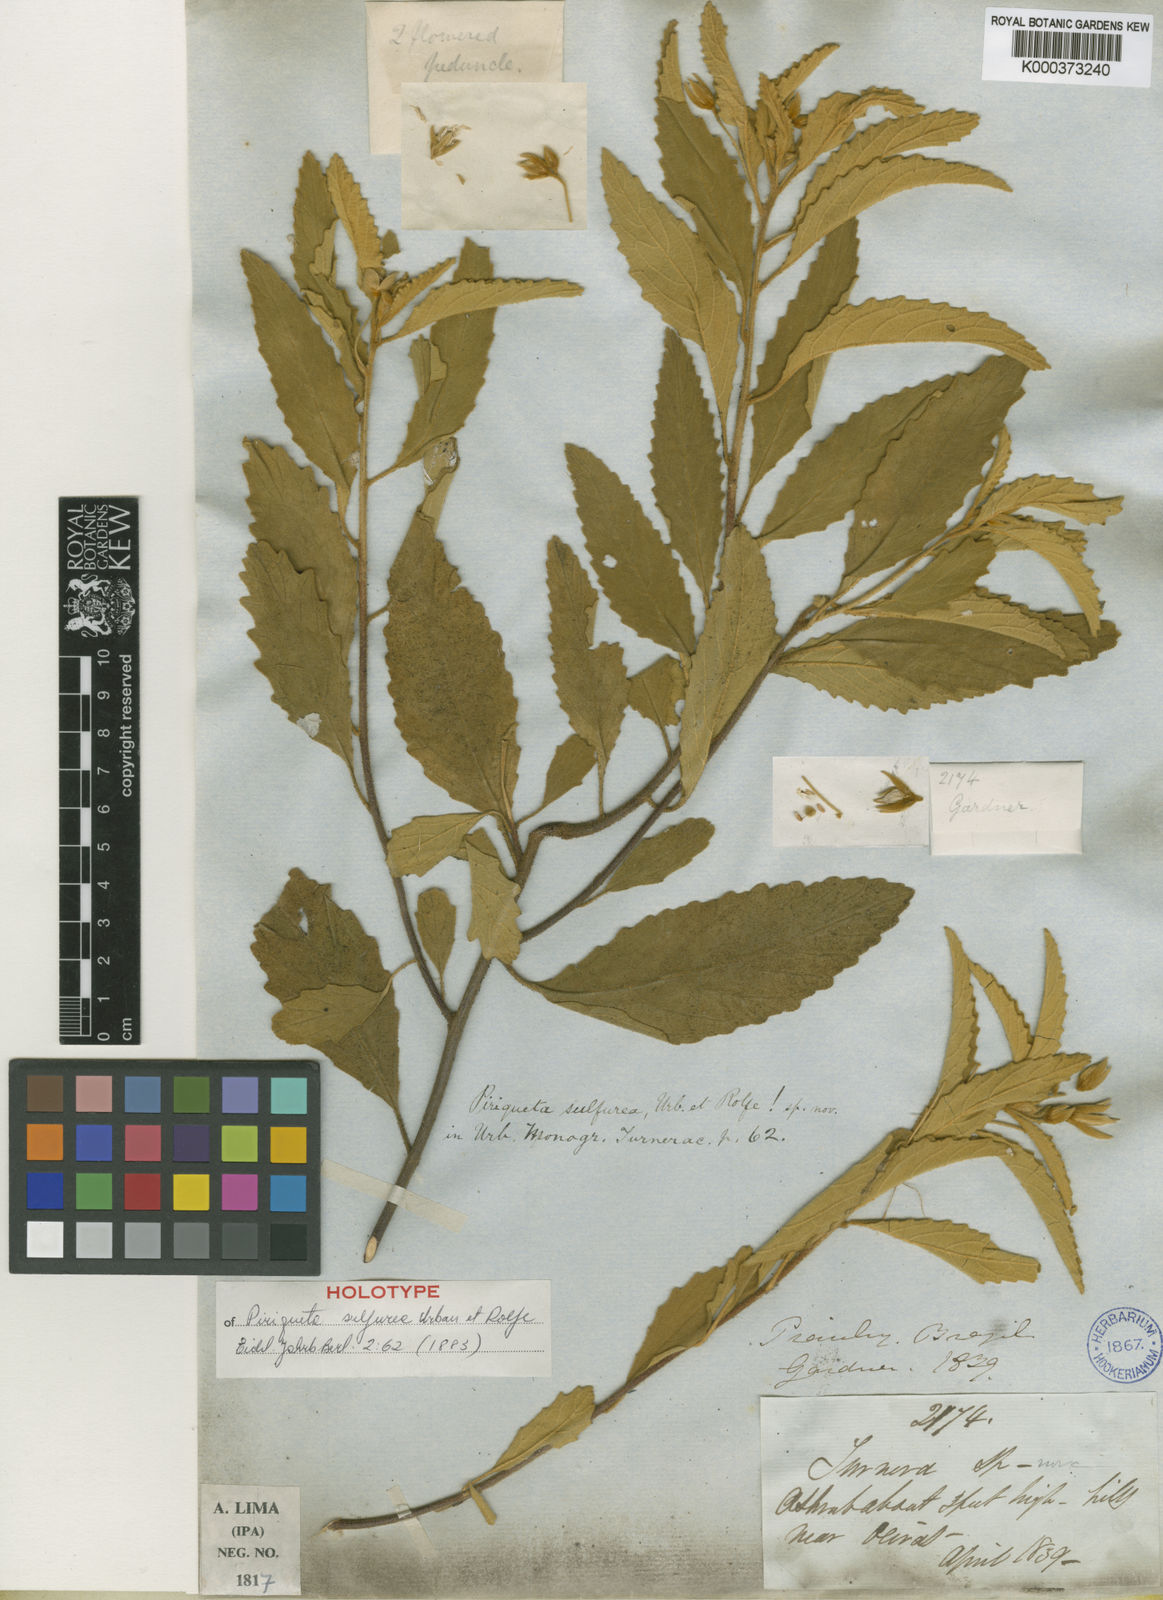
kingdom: Plantae
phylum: Tracheophyta
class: Magnoliopsida
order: Malpighiales
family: Turneraceae
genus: Piriqueta
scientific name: Piriqueta
